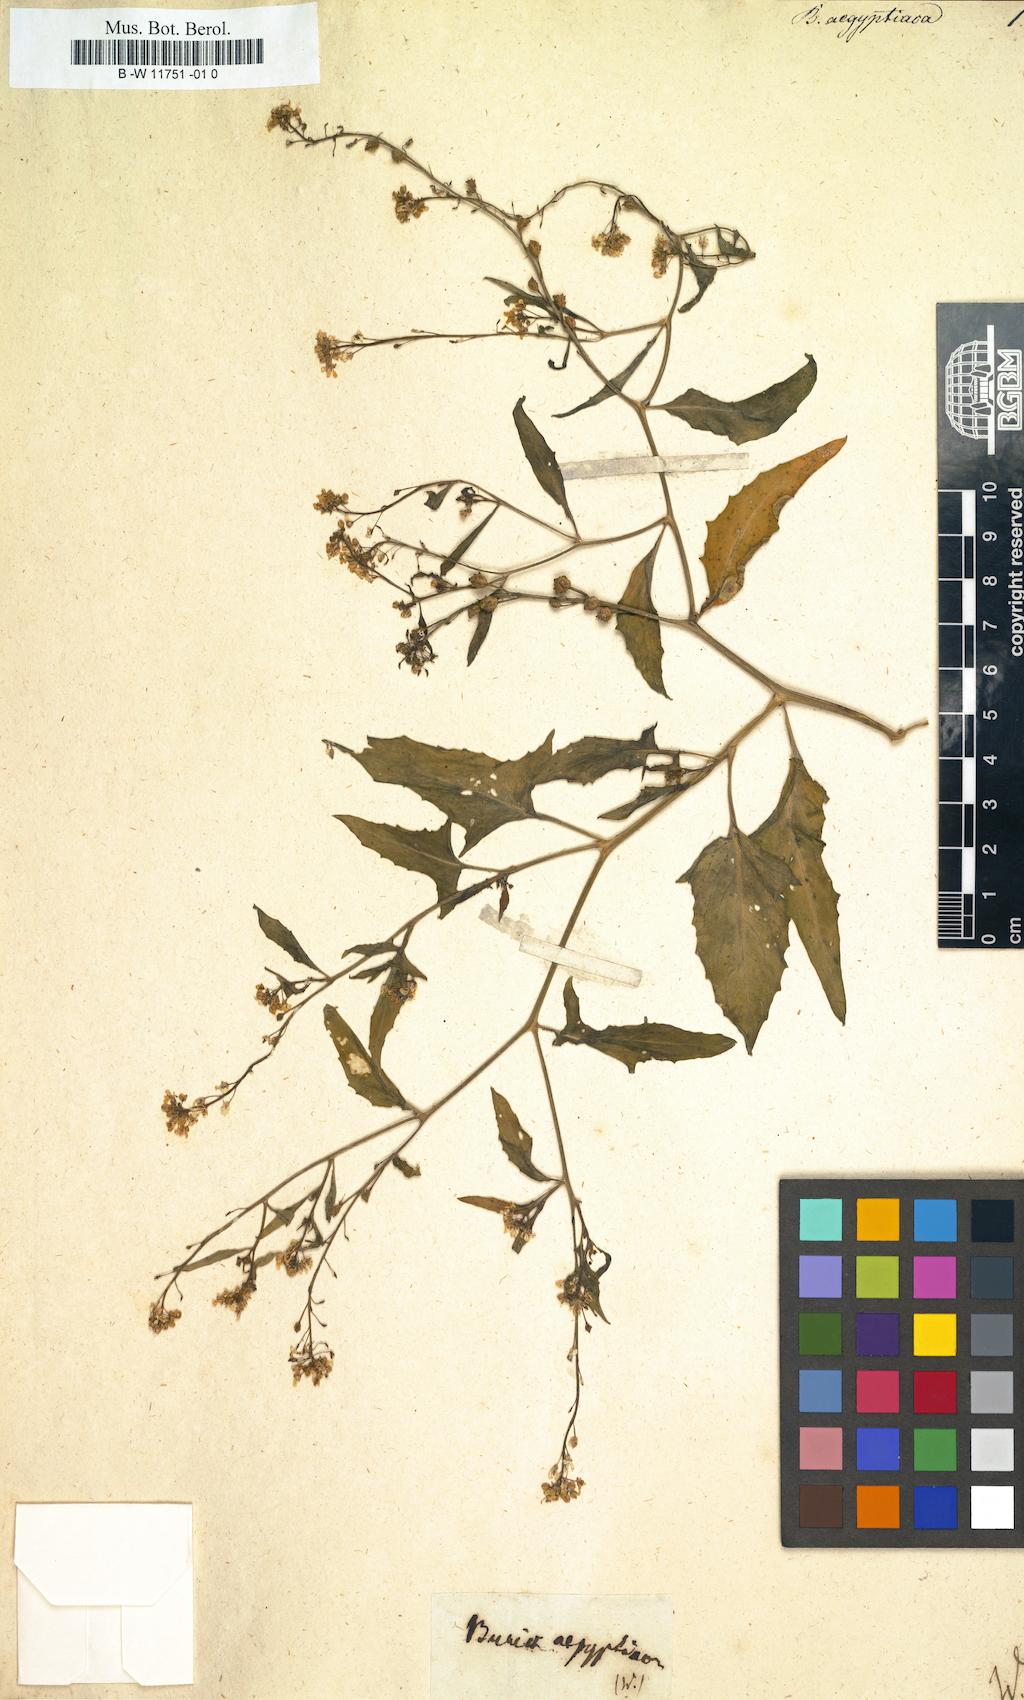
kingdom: Plantae
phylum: Tracheophyta
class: Magnoliopsida
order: Brassicales
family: Brassicaceae
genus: Ochthodium
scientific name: Ochthodium aegyptiacum
